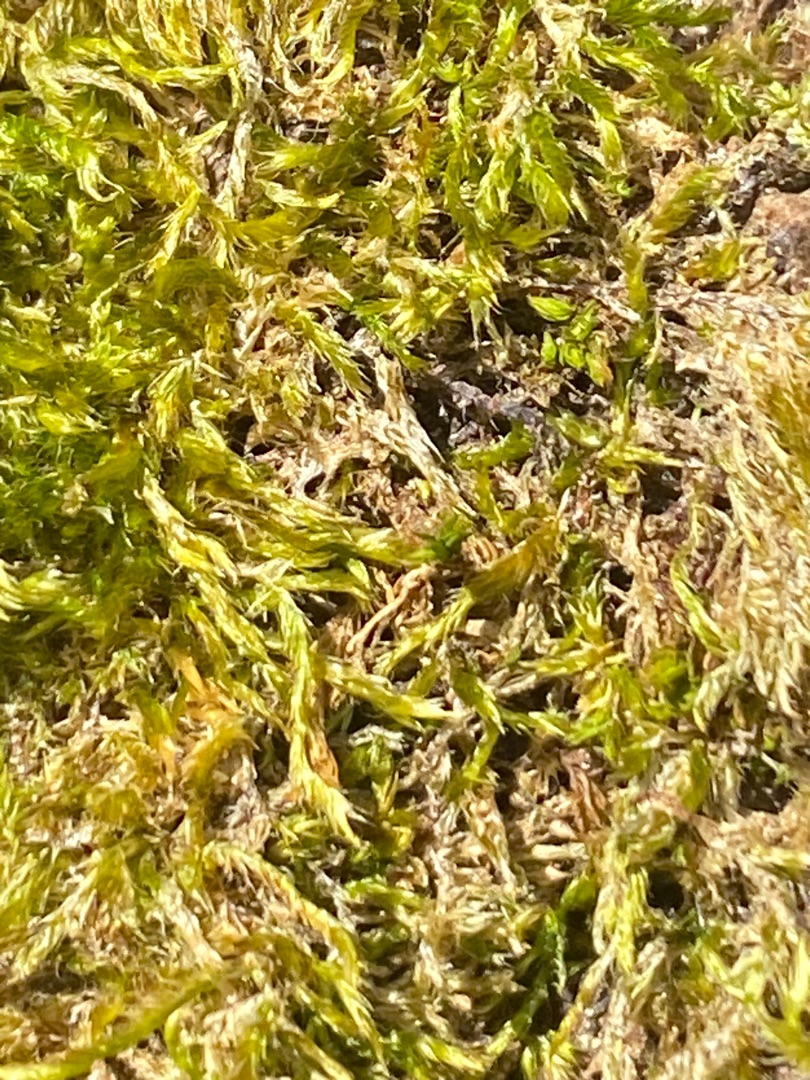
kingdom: Plantae
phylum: Bryophyta
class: Bryopsida
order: Hypnales
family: Hypnaceae
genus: Hypnum
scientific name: Hypnum
